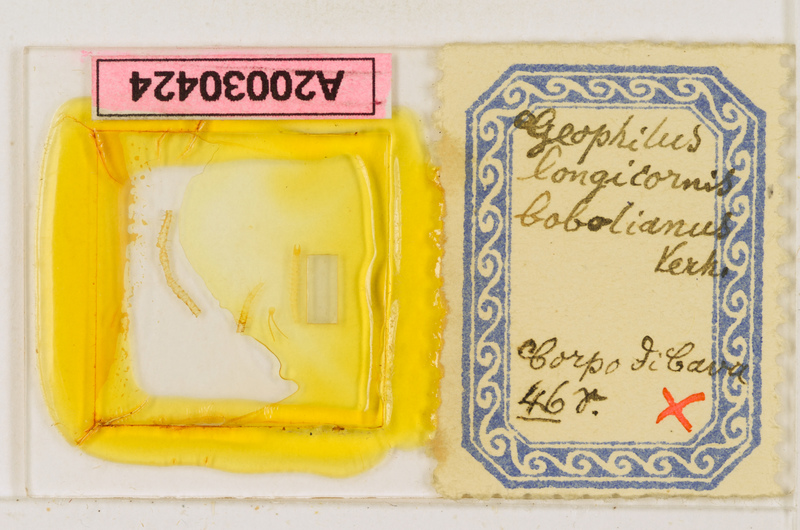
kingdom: Animalia
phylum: Arthropoda
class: Chilopoda
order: Geophilomorpha
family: Geophilidae
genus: Geophilus
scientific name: Geophilus flavus
